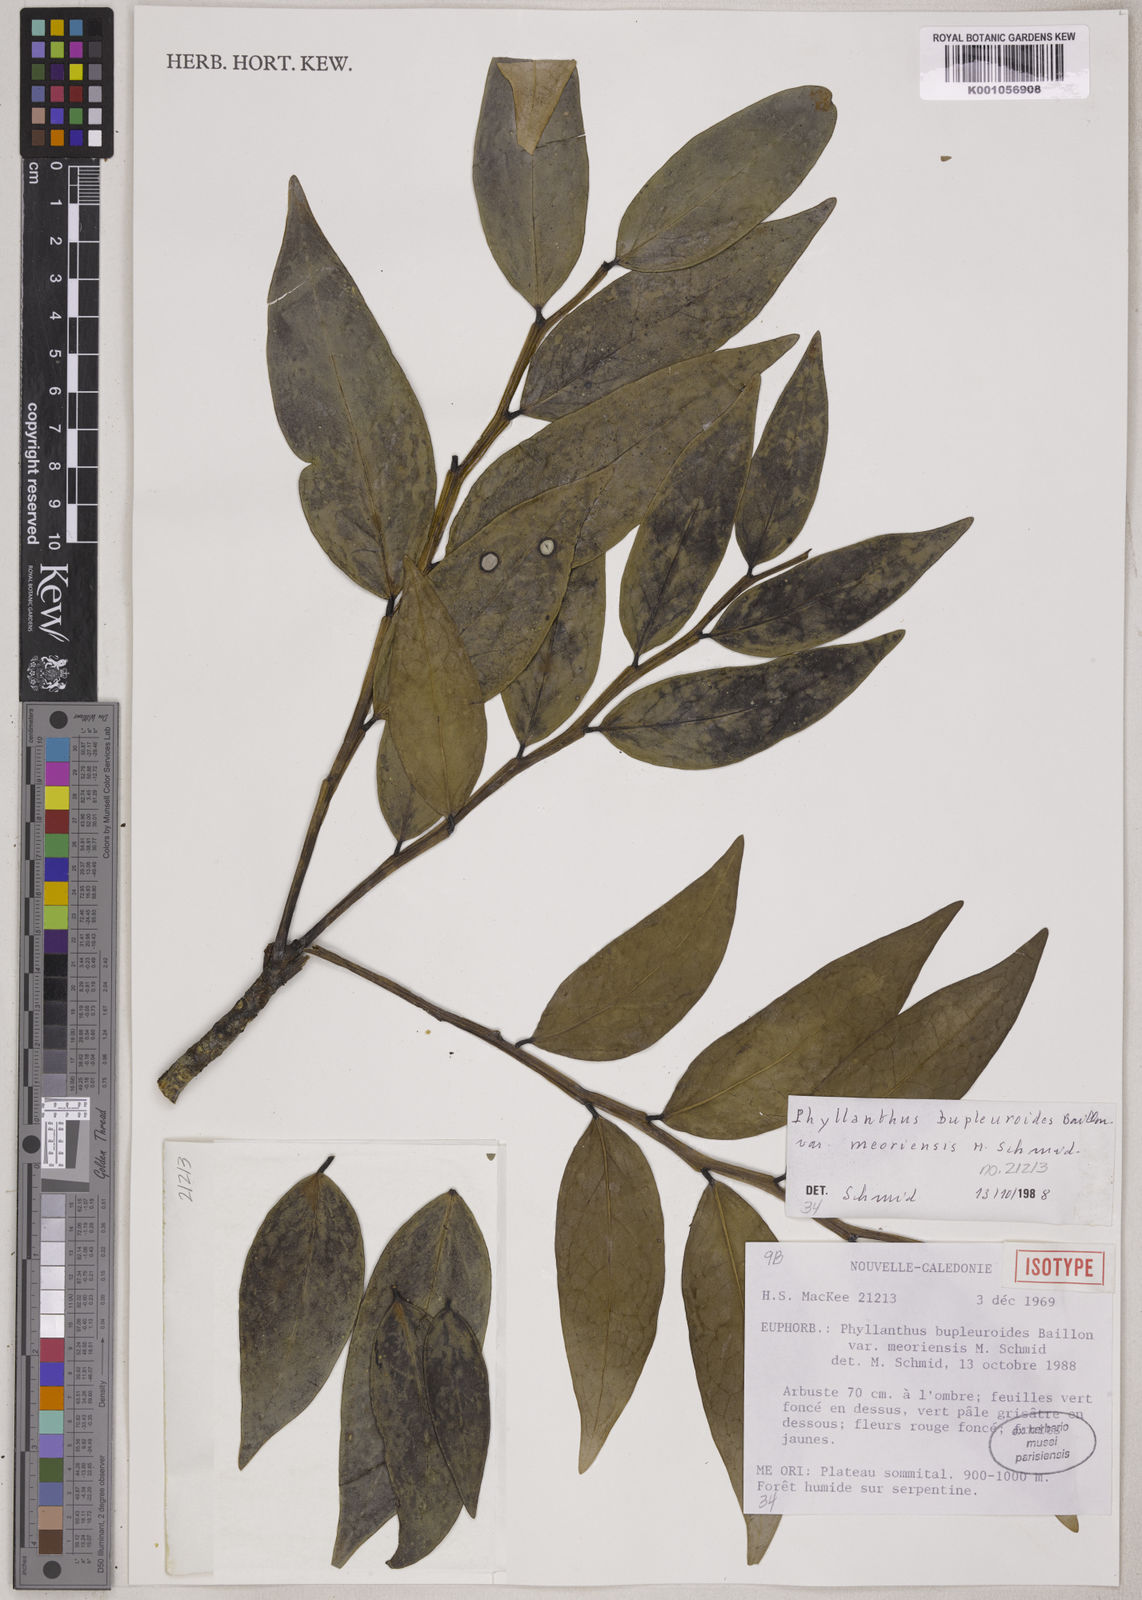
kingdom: Plantae
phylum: Tracheophyta
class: Magnoliopsida
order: Malpighiales
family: Phyllanthaceae
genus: Phyllanthus
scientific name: Phyllanthus bupleuroides
